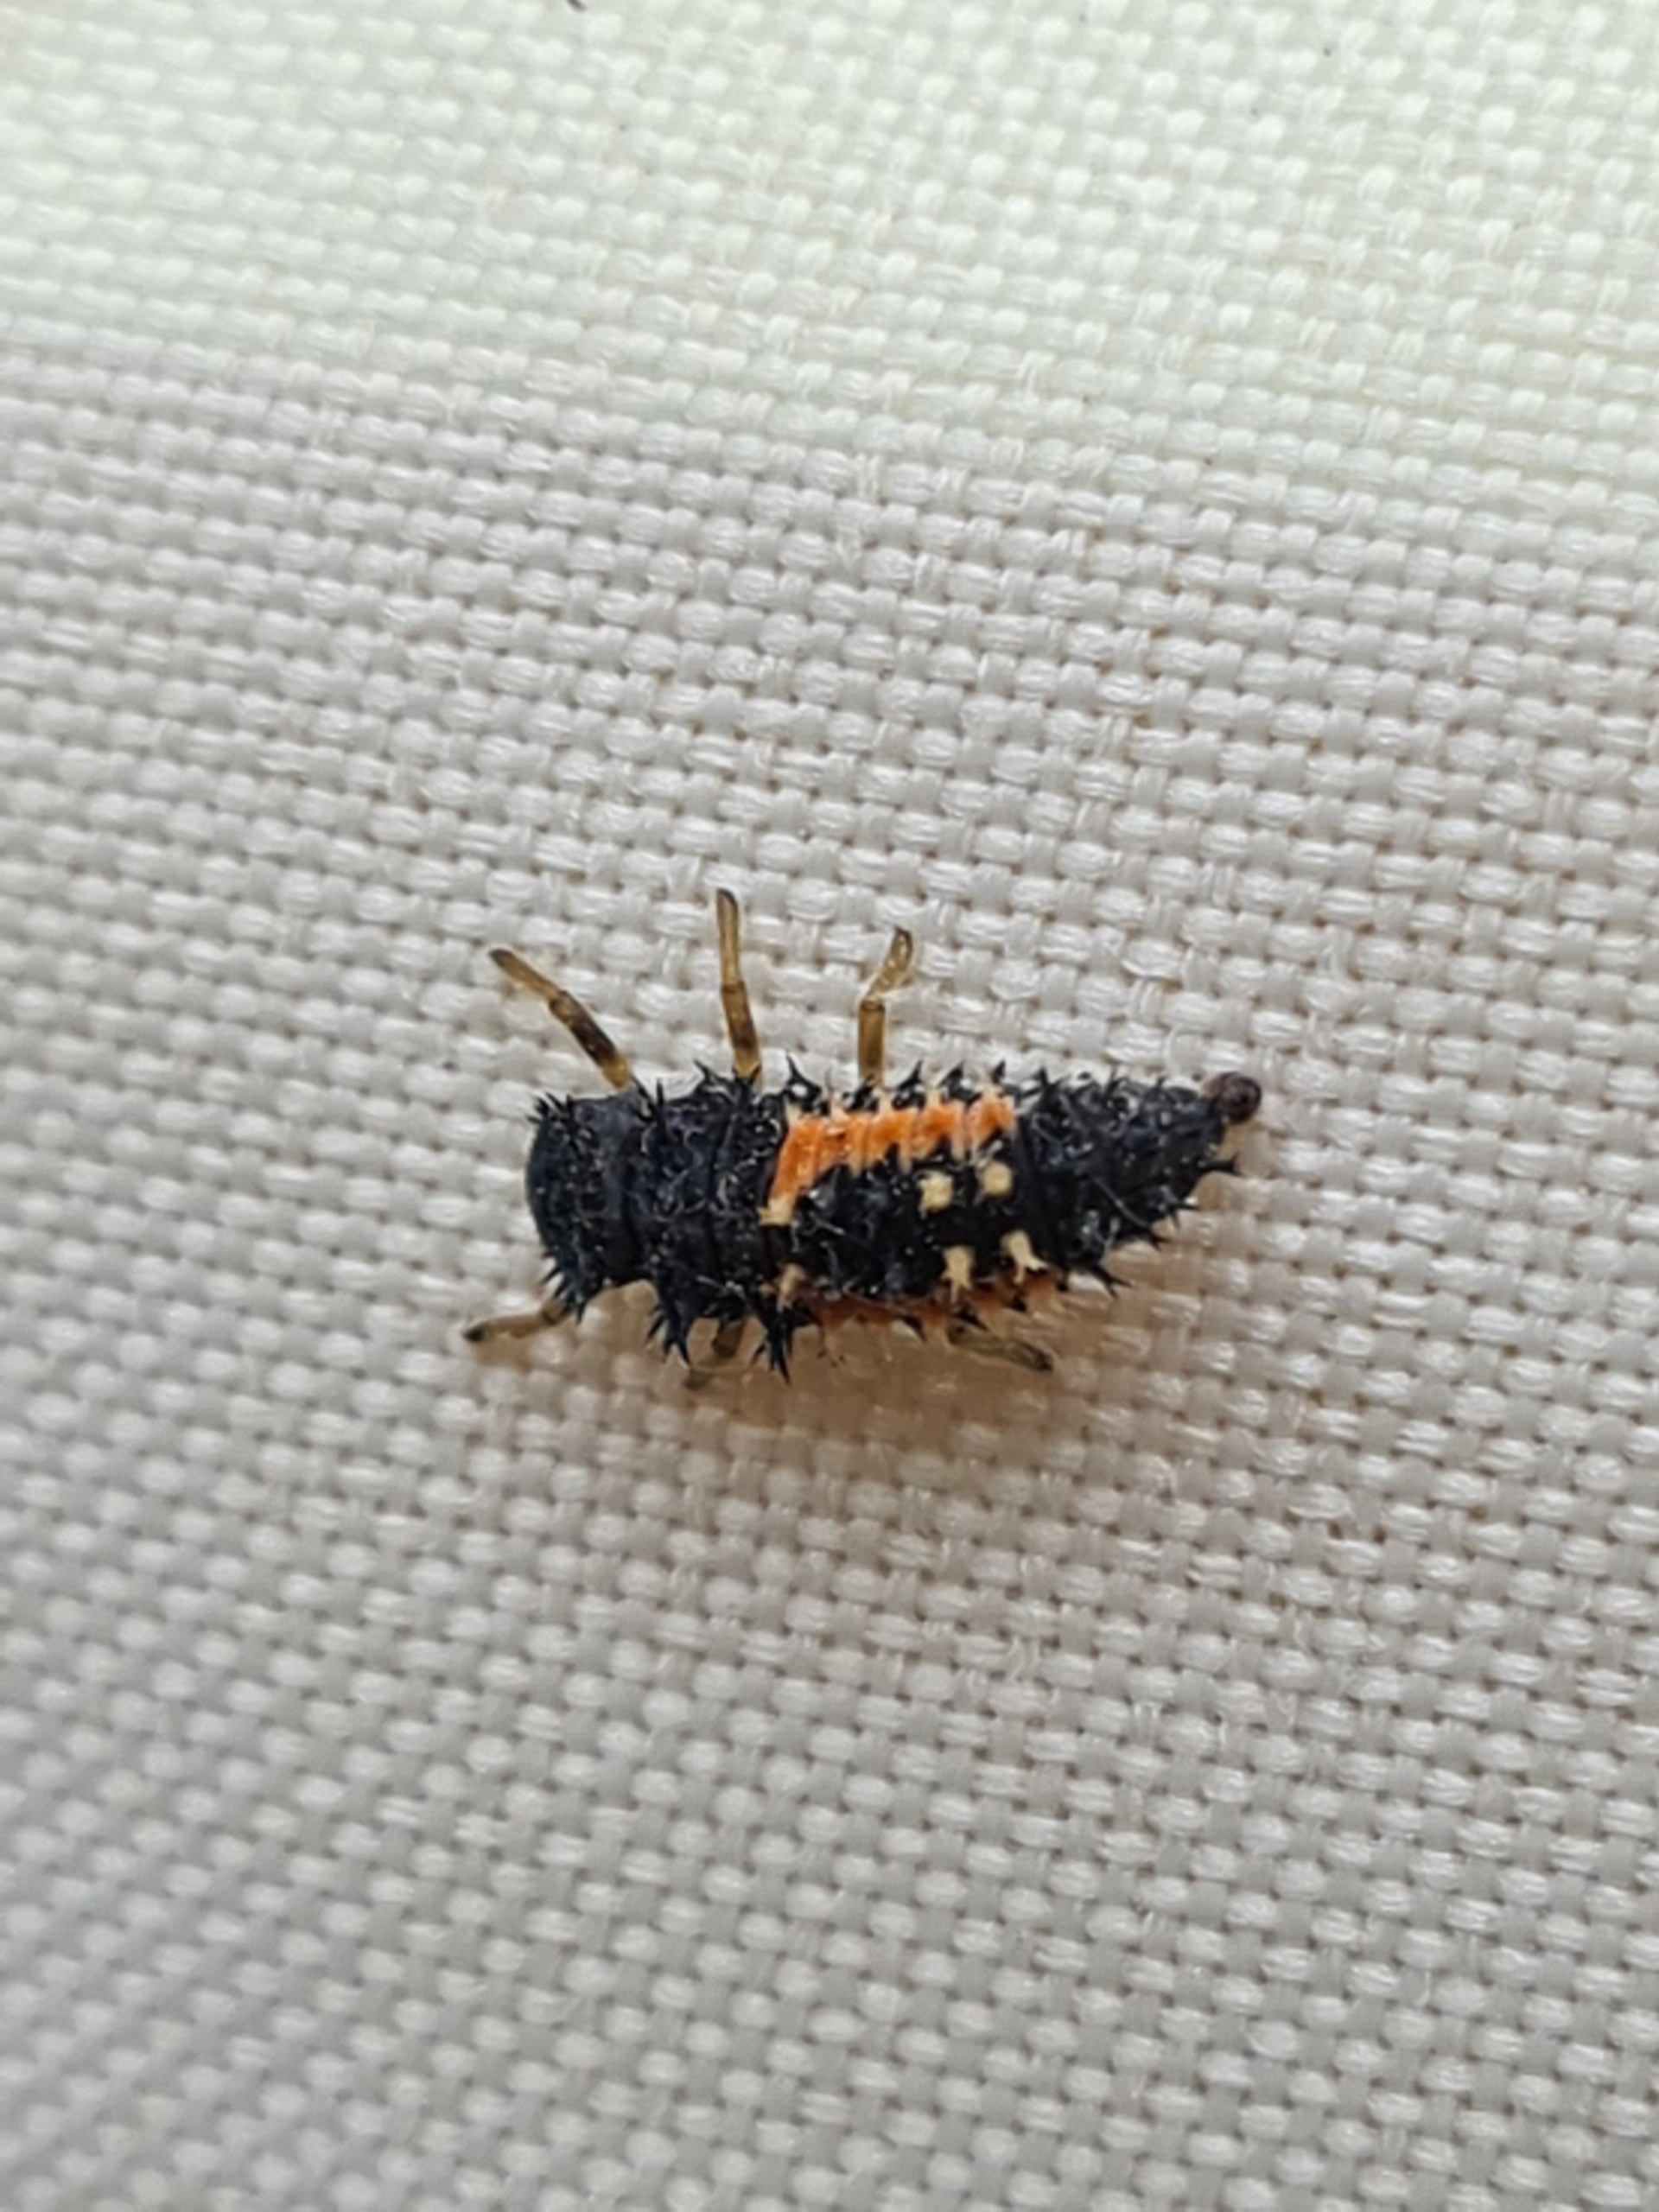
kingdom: Animalia
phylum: Arthropoda
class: Insecta
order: Coleoptera
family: Coccinellidae
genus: Harmonia
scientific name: Harmonia axyridis
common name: Harlekinmariehøne
